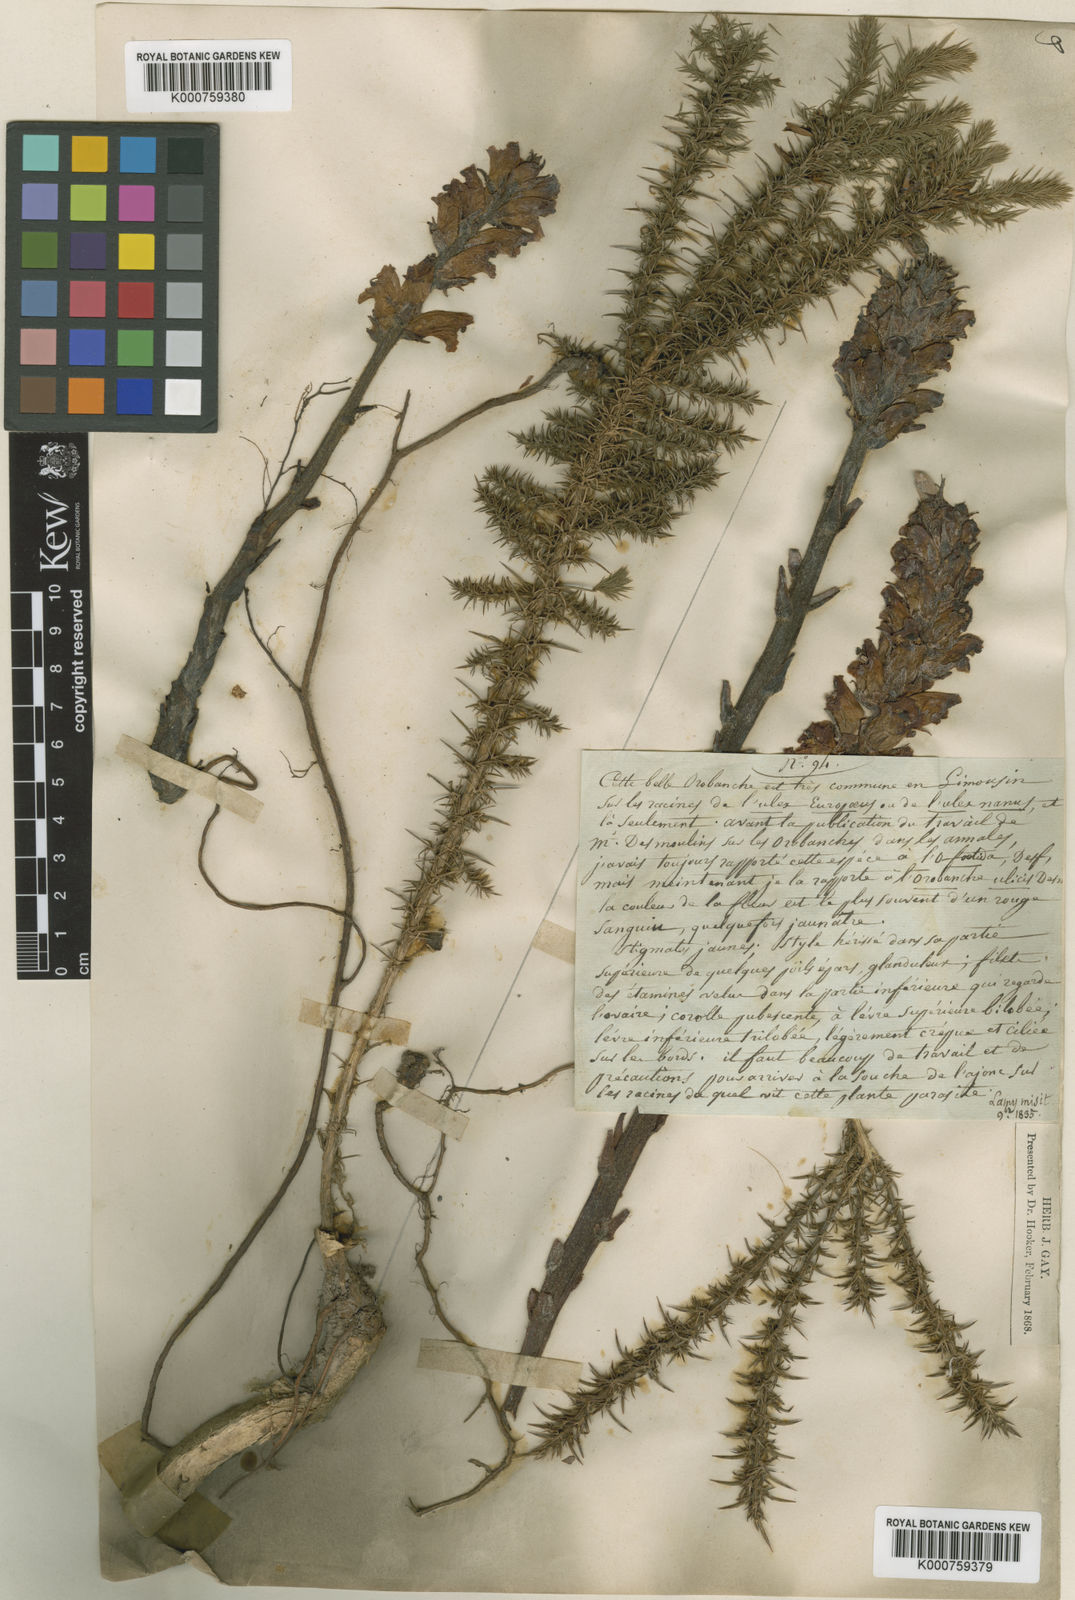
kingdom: Plantae
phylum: Tracheophyta
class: Magnoliopsida
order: Lamiales
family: Orobanchaceae
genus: Orobanche
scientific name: Orobanche gracilis
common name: Slender broomrape
